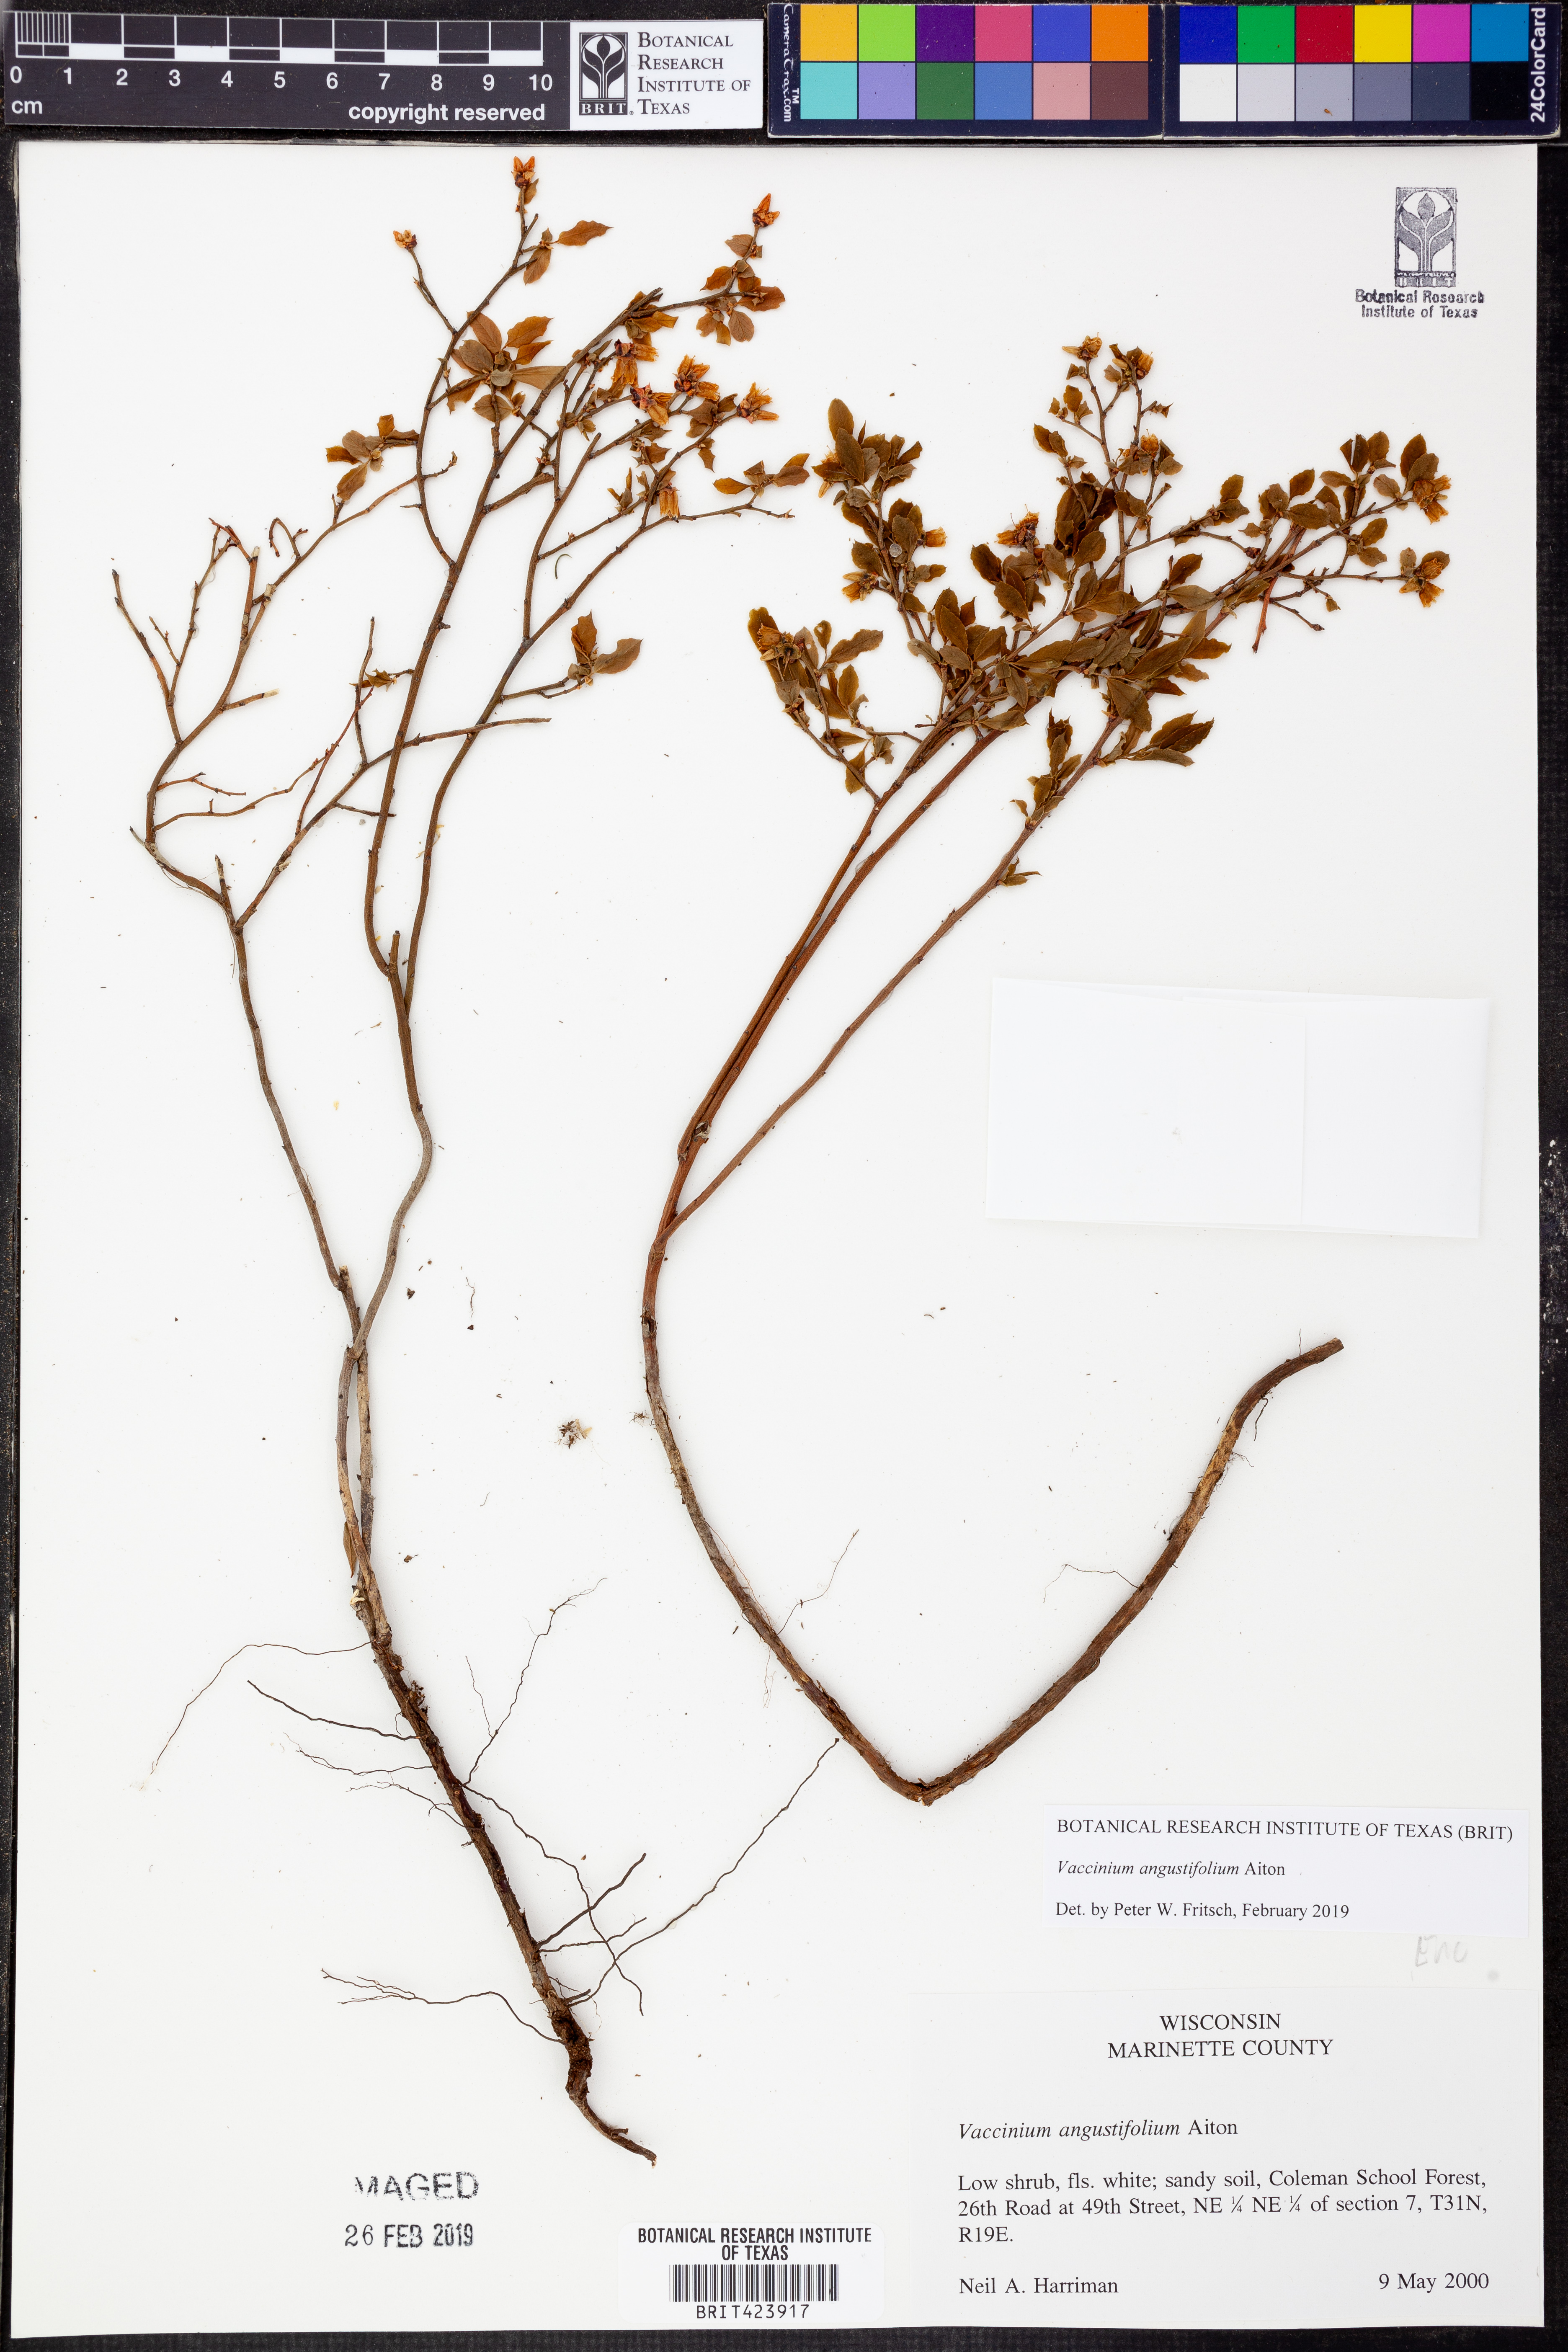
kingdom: Plantae
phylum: Tracheophyta
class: Magnoliopsida
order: Ericales
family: Ericaceae
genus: Vaccinium
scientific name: Vaccinium angustifolium
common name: Early lowbush blueberry
